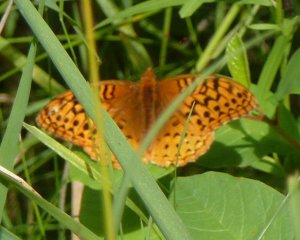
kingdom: Animalia
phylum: Arthropoda
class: Insecta
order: Lepidoptera
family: Nymphalidae
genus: Speyeria
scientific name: Speyeria cybele
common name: Great Spangled Fritillary
